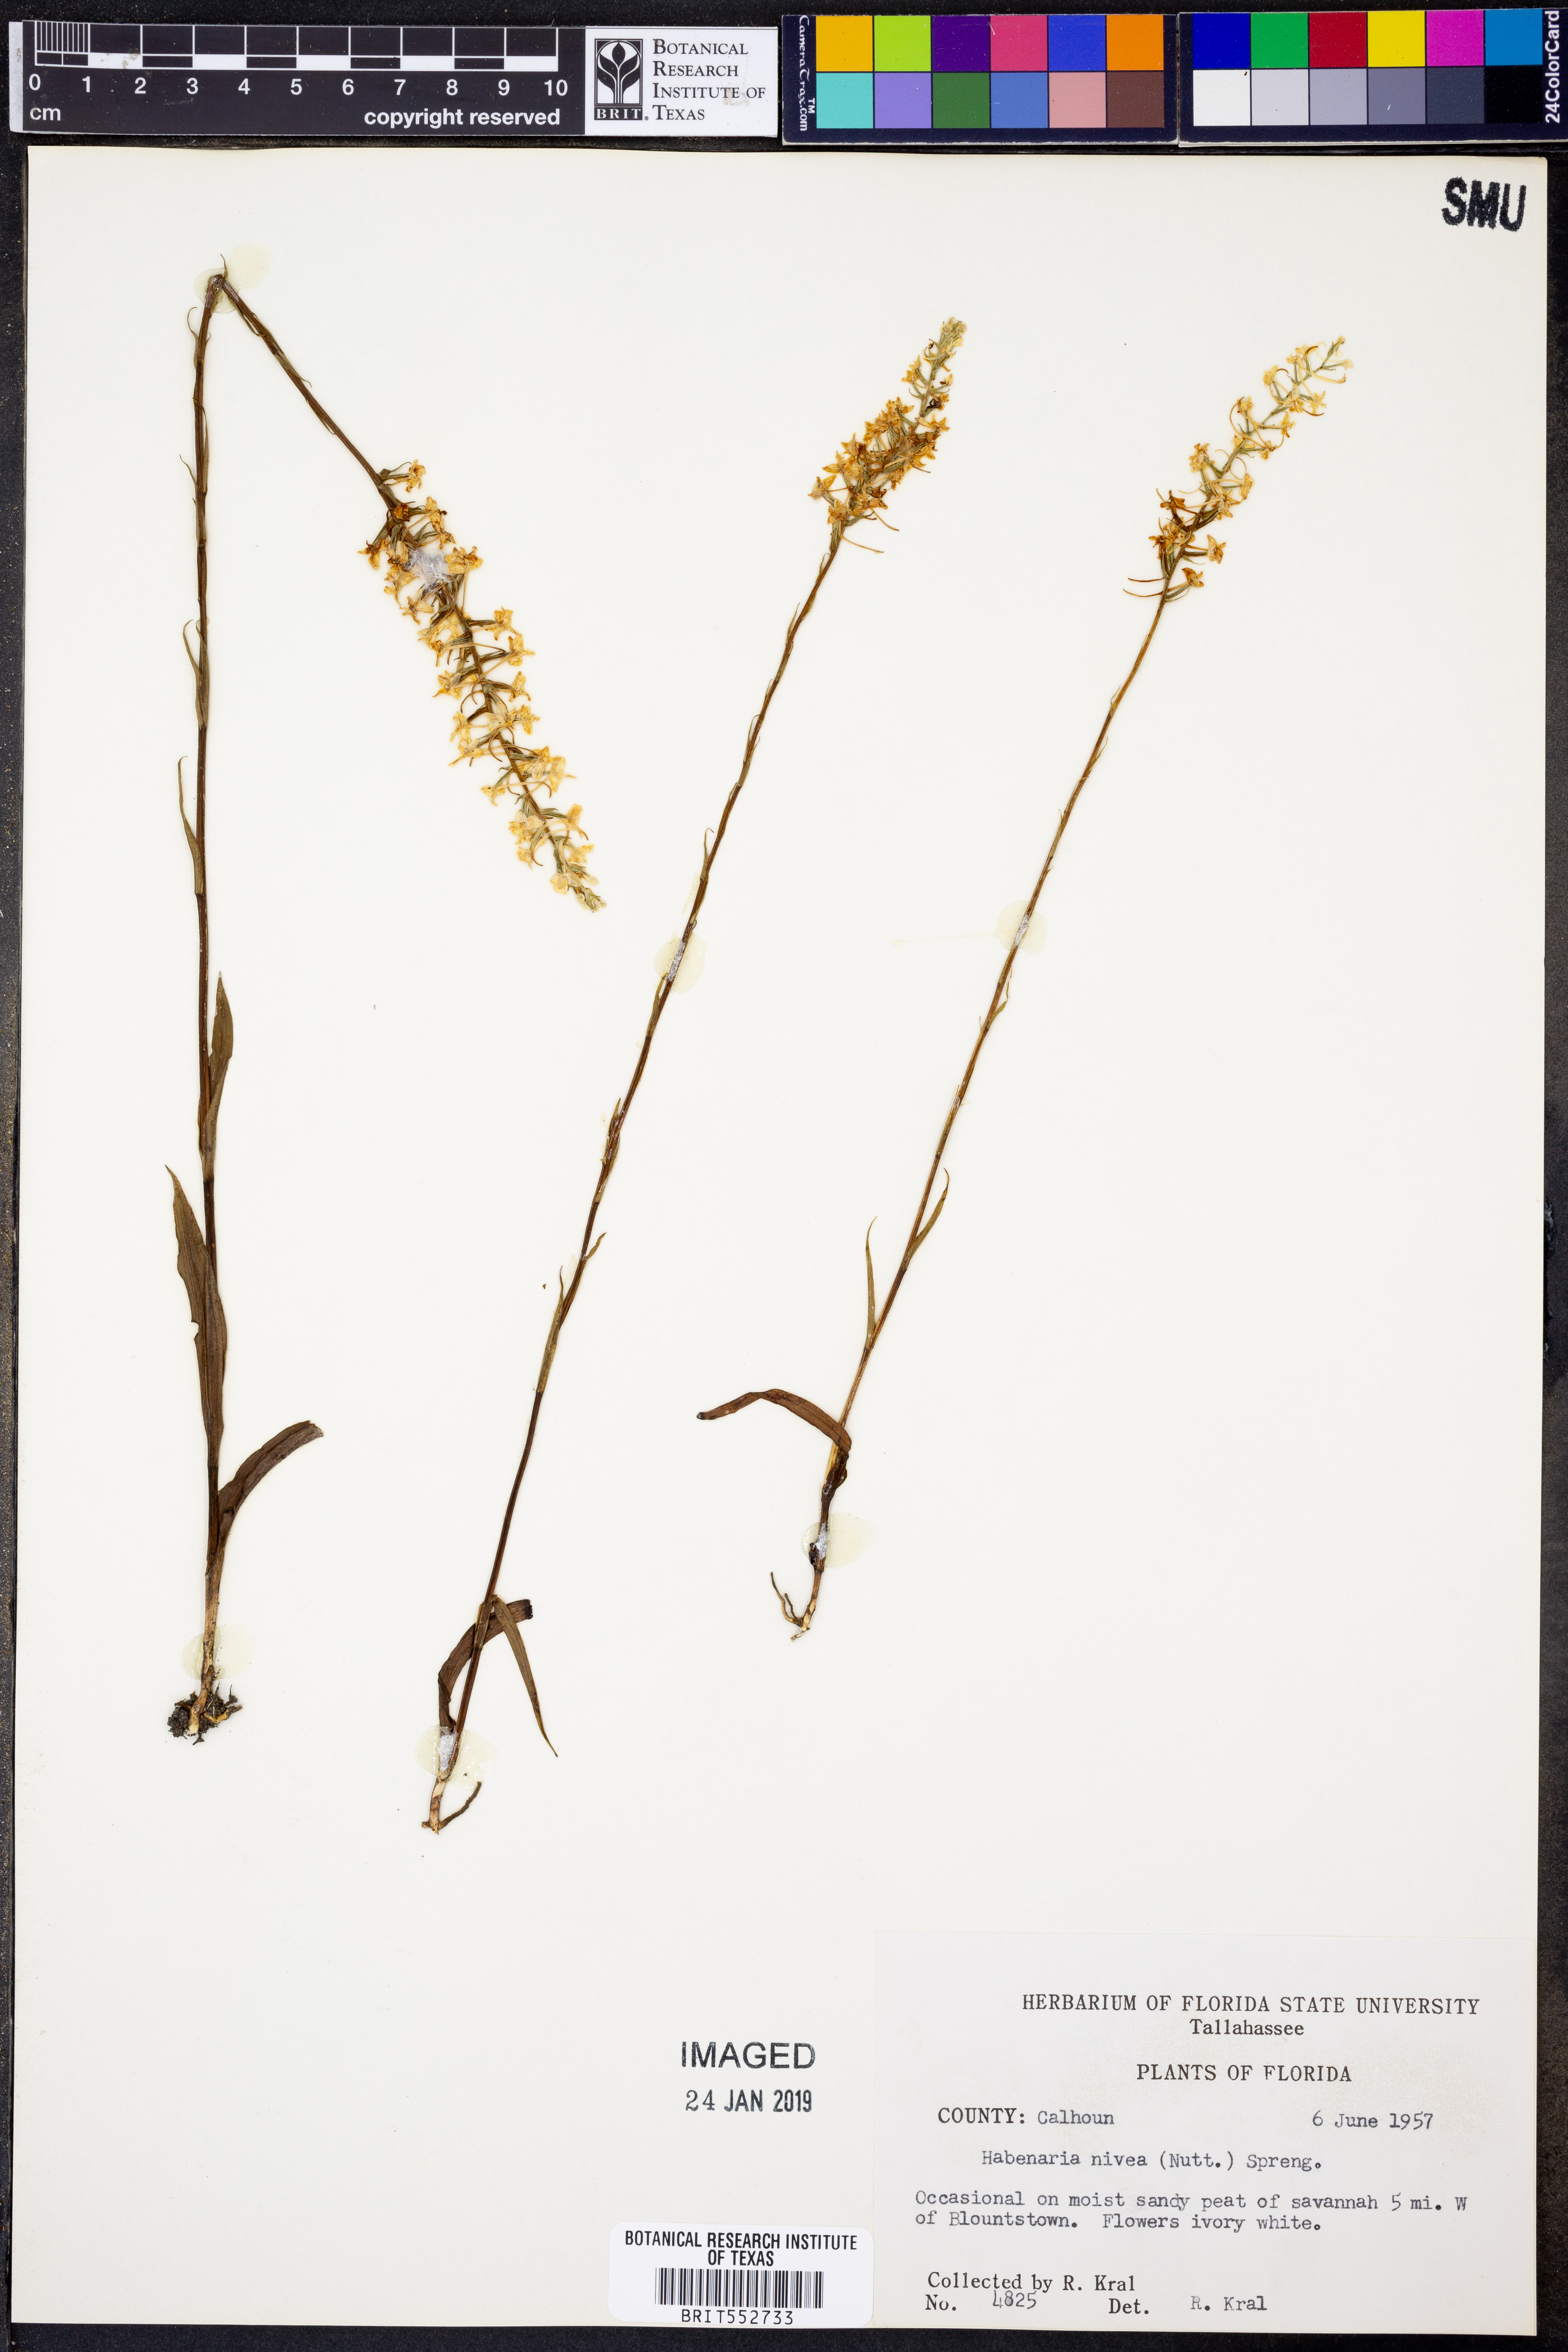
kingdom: Plantae
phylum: Tracheophyta
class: Liliopsida
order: Asparagales
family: Orchidaceae
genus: Platanthera
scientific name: Platanthera nivea
